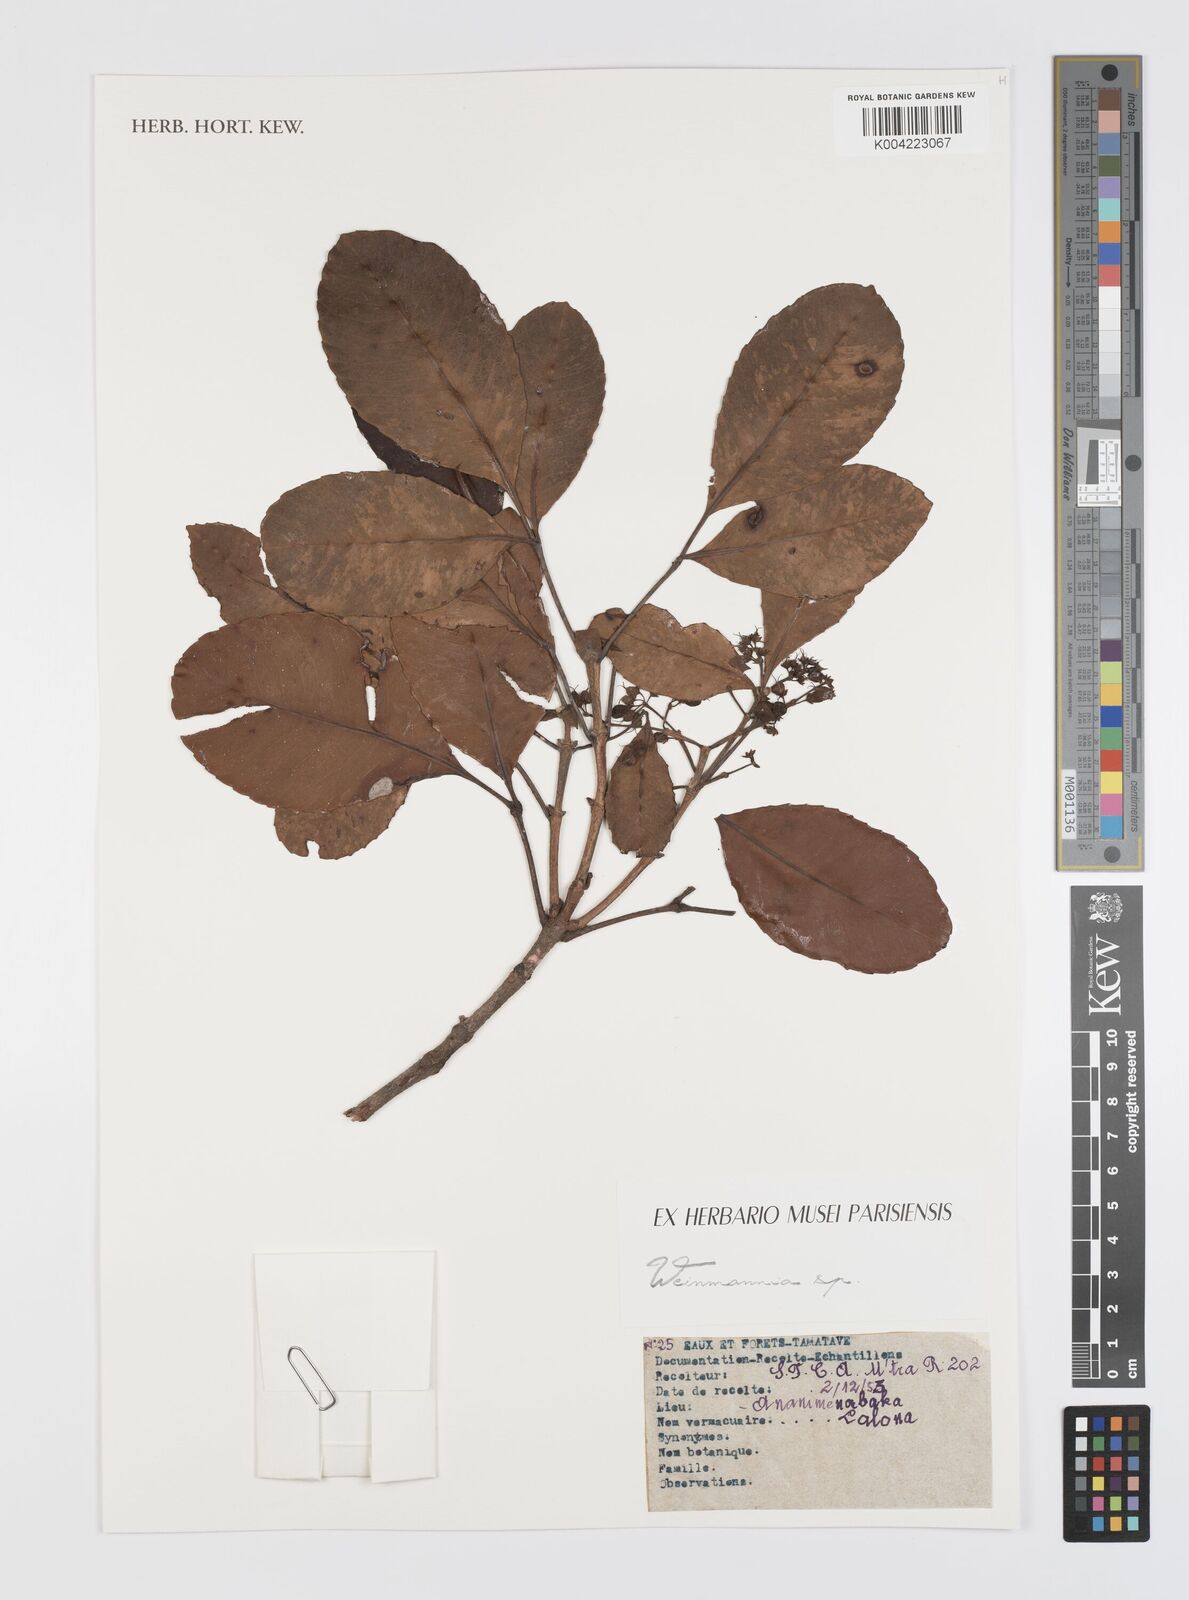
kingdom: Plantae
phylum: Tracheophyta
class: Magnoliopsida
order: Oxalidales
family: Cunoniaceae
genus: Weinmannia
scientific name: Weinmannia
